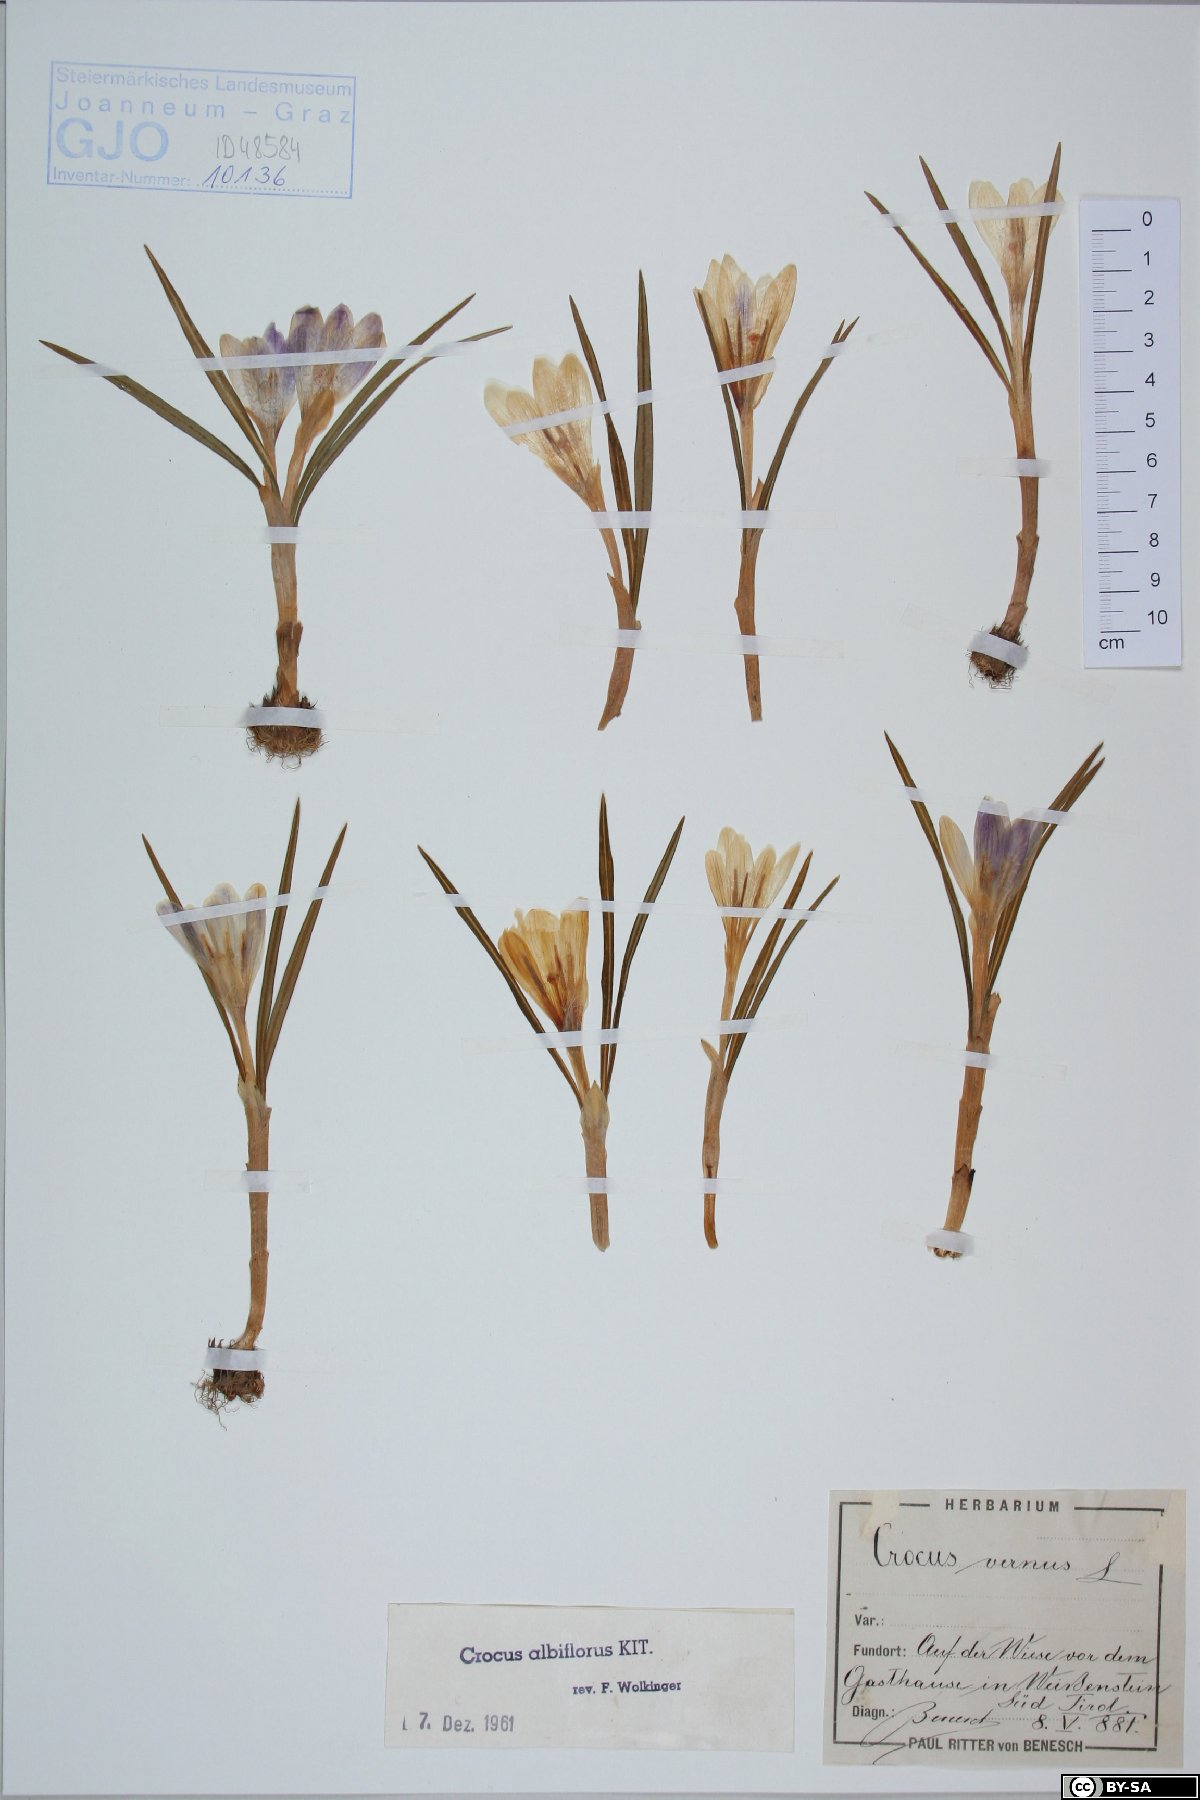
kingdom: Plantae
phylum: Tracheophyta
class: Liliopsida
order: Asparagales
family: Iridaceae
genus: Crocus
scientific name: Crocus vernus
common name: Spring crocus
